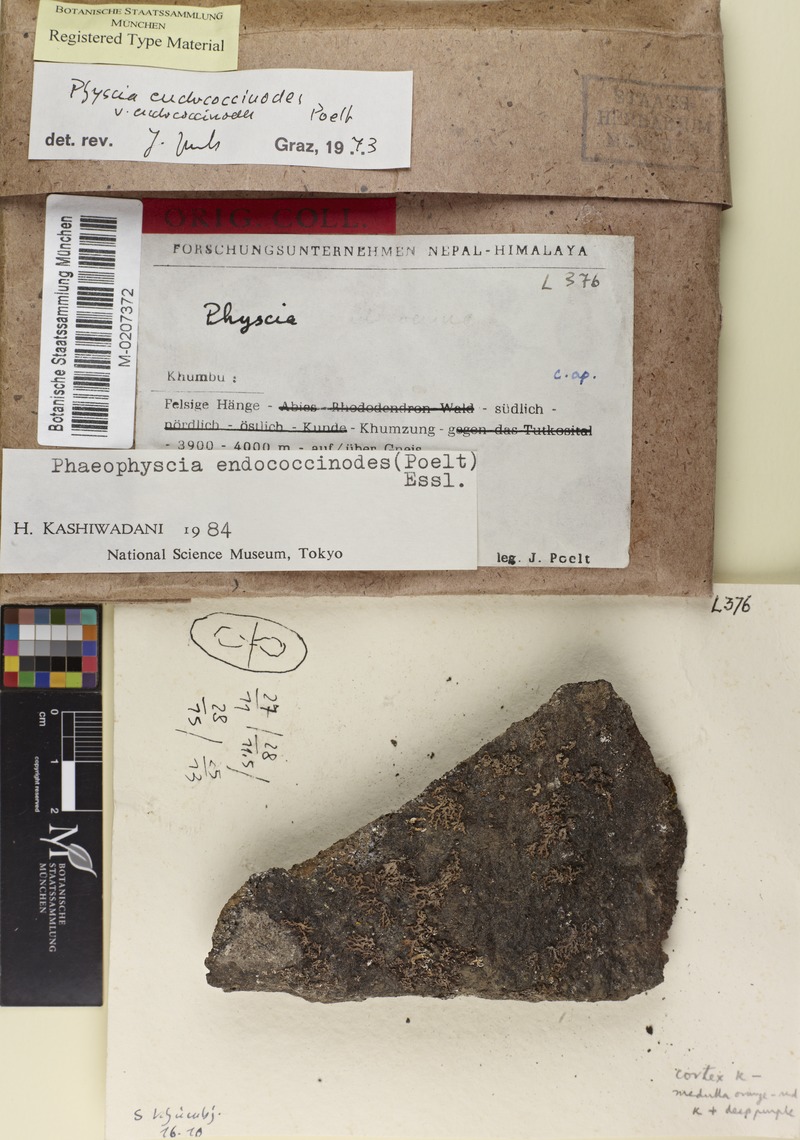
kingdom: Fungi
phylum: Ascomycota
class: Lecanoromycetes
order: Caliciales
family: Physciaceae
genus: Phaeophyscia
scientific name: Phaeophyscia endococcinodes
